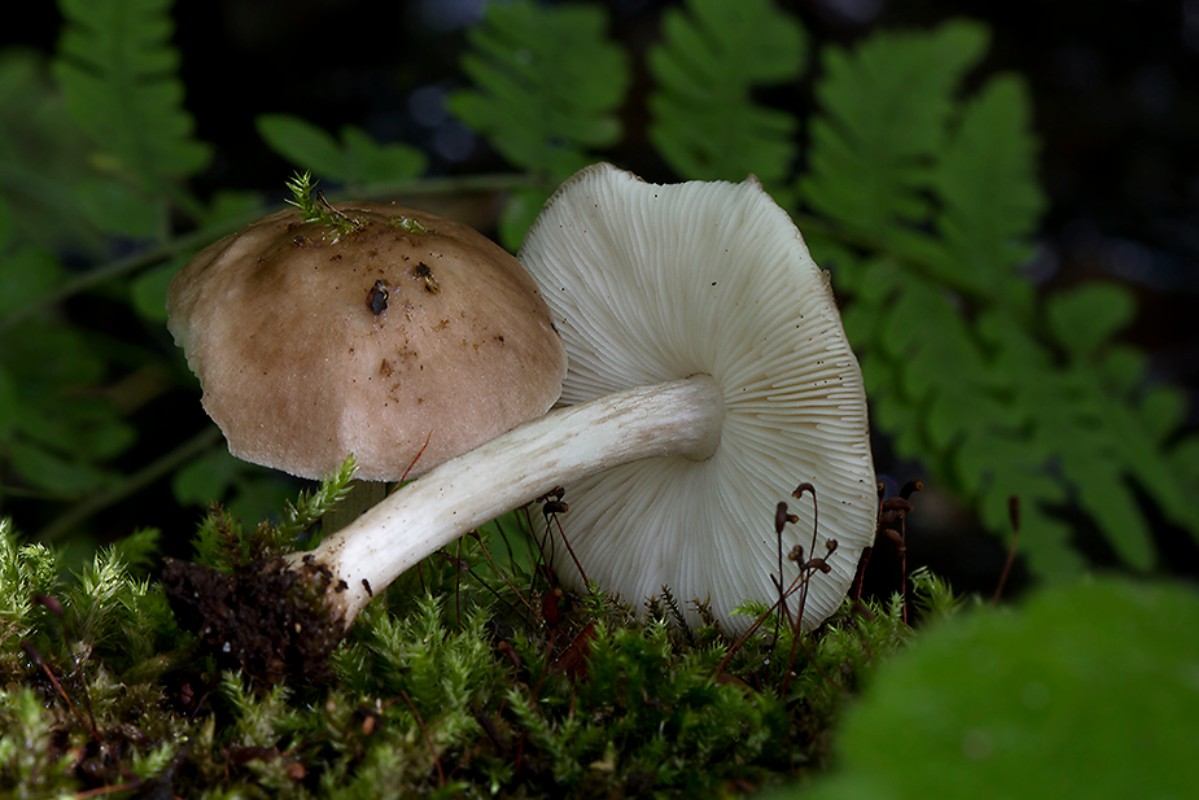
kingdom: Fungi
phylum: Basidiomycota
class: Agaricomycetes
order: Agaricales
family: Pluteaceae
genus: Pluteus
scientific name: Pluteus cervinus
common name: sodfarvet skærmhat
